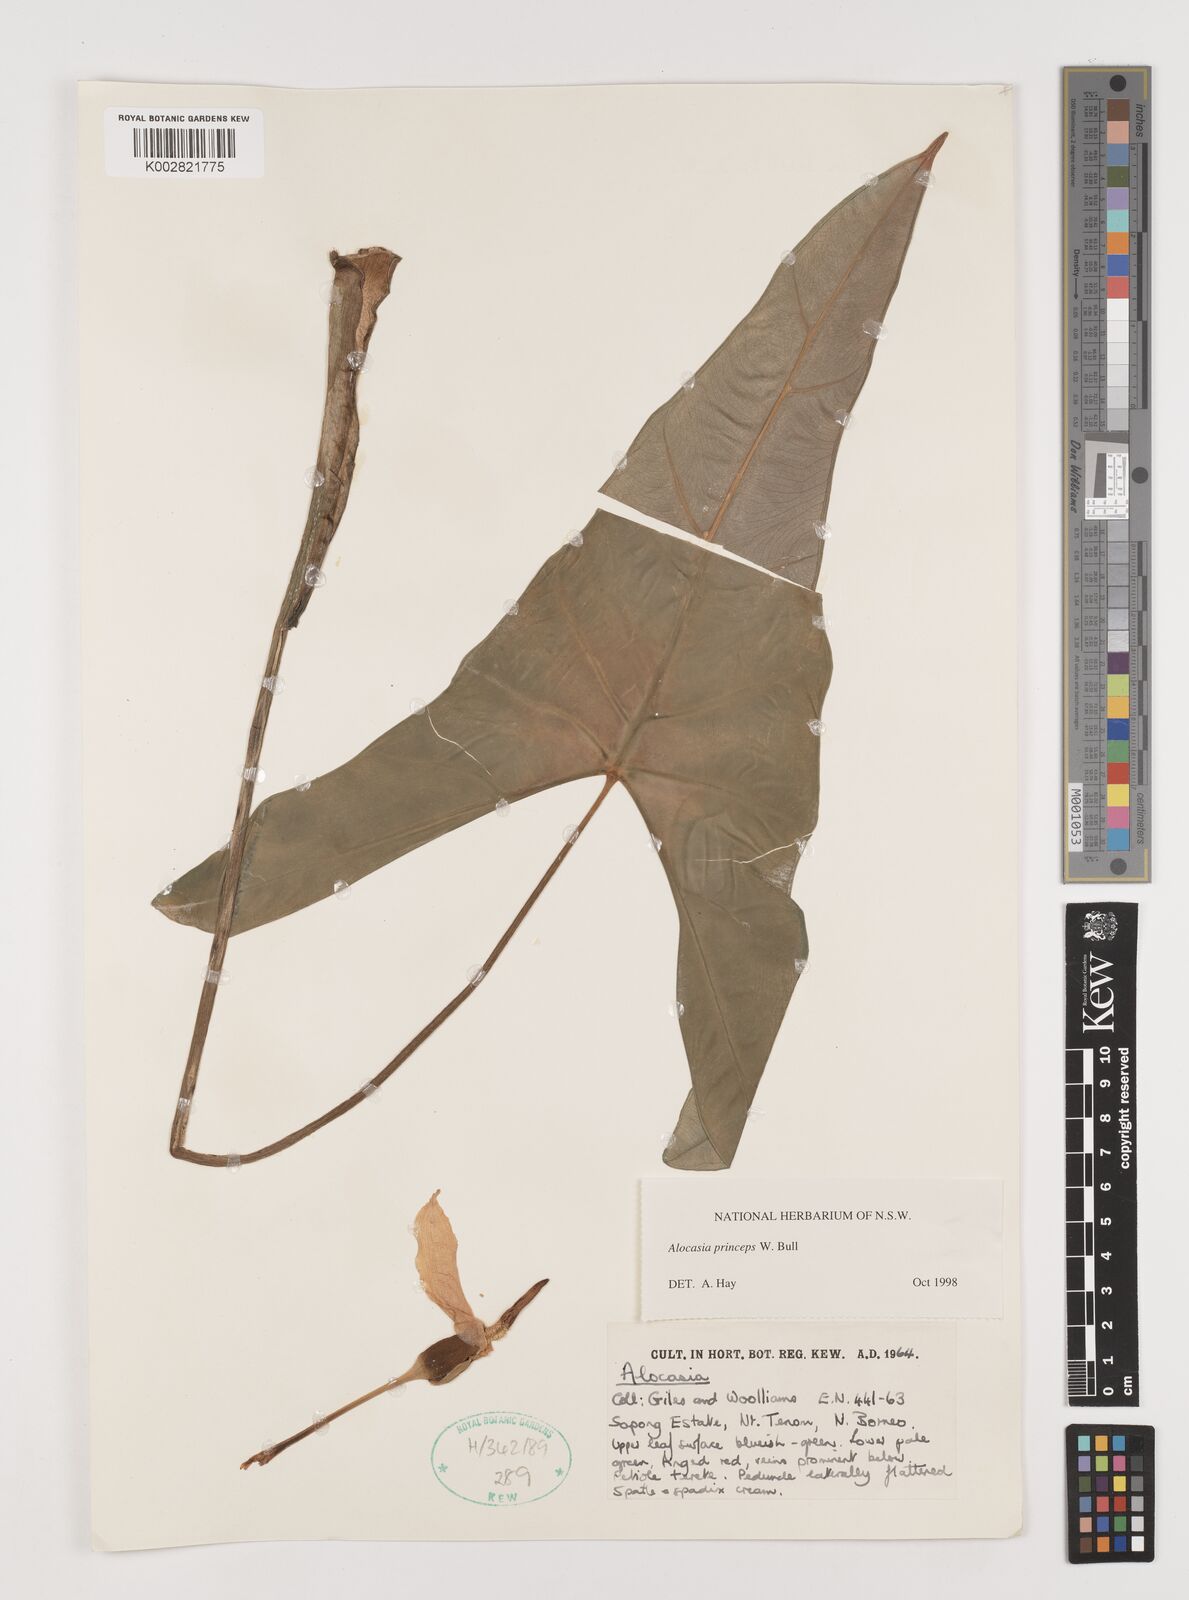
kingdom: Plantae
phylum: Tracheophyta
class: Liliopsida
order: Alismatales
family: Araceae
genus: Alocasia
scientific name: Alocasia princeps
